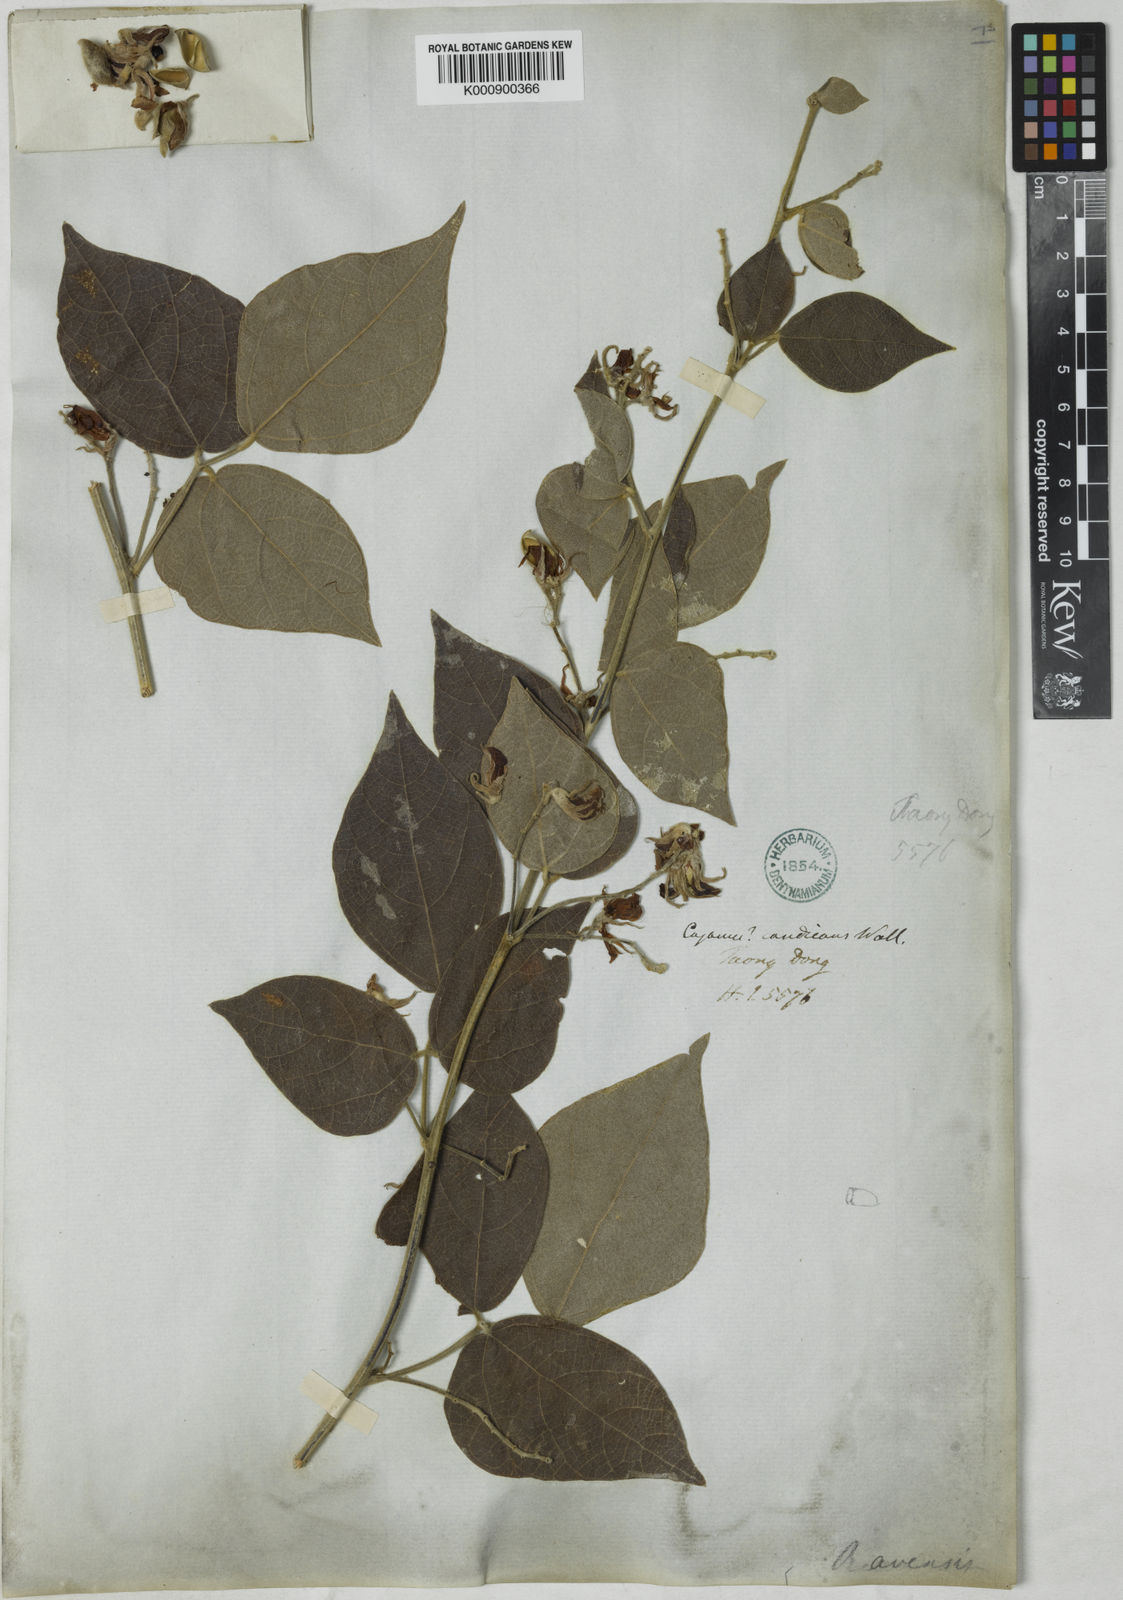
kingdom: Plantae
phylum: Tracheophyta
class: Magnoliopsida
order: Fabales
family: Fabaceae
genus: Rhynchosia
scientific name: Rhynchosia
